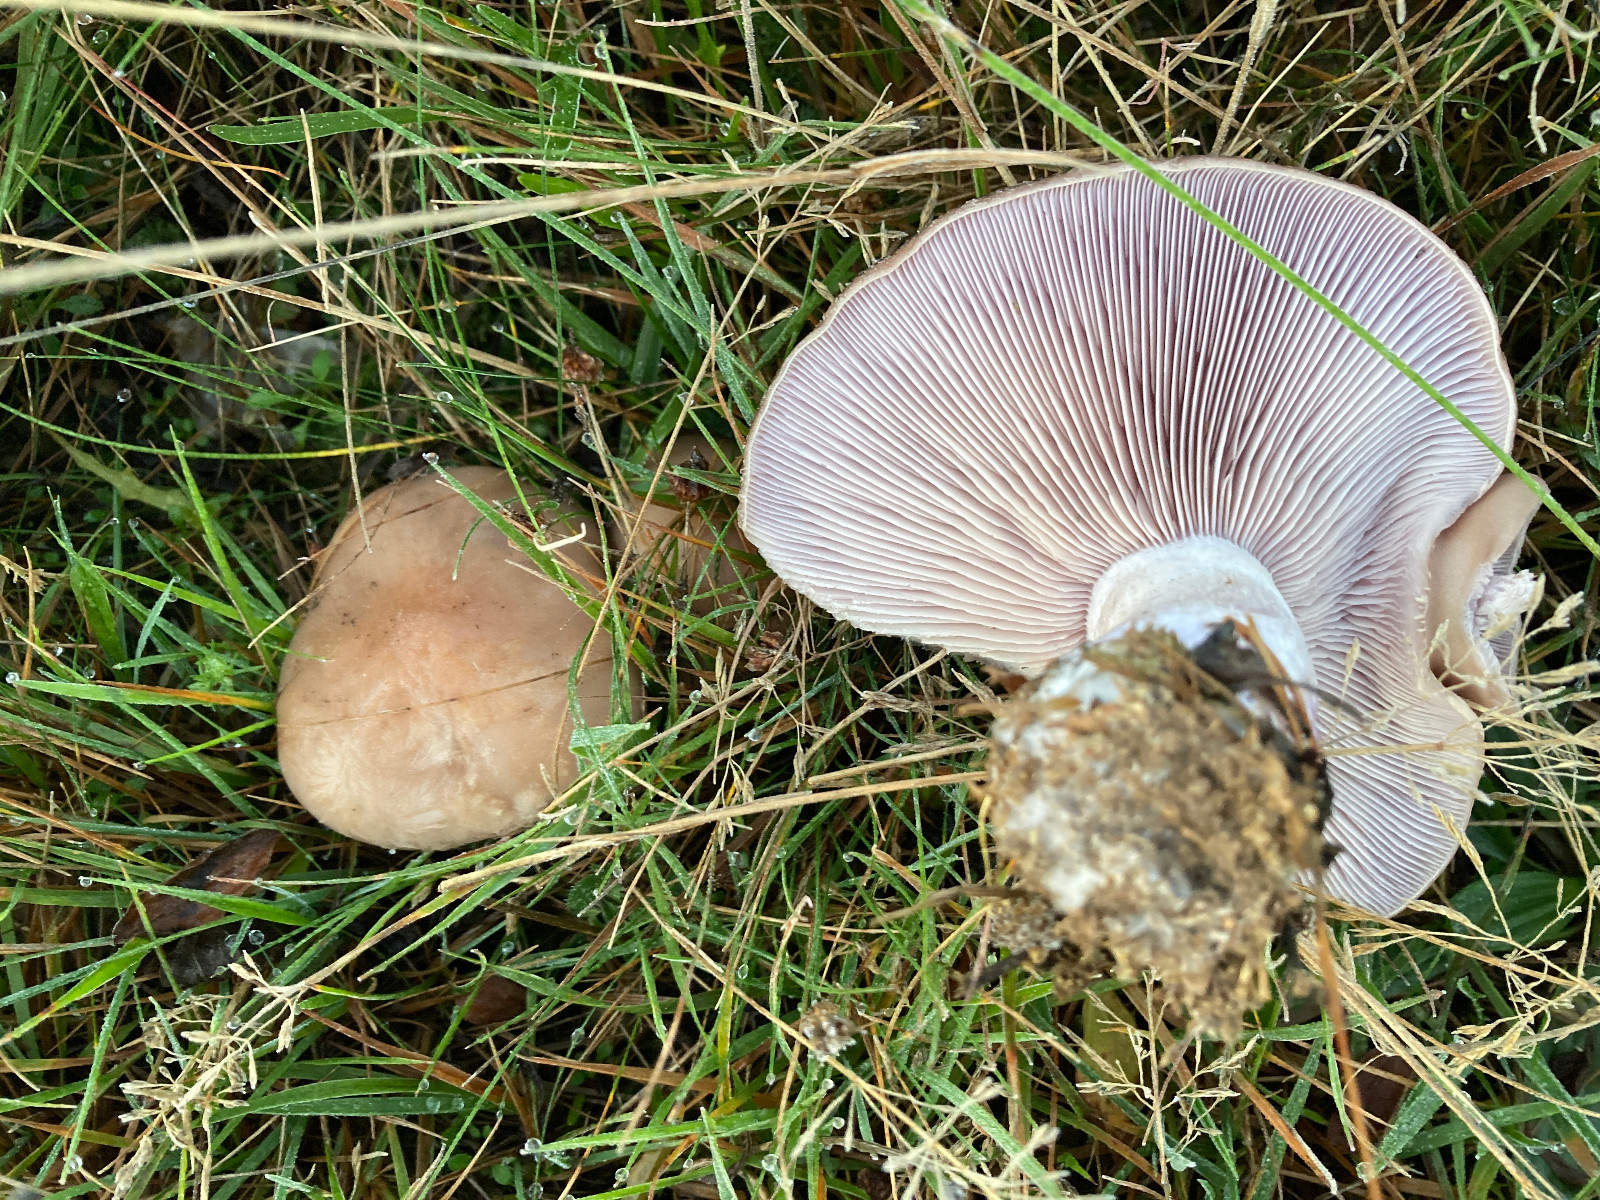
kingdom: Fungi
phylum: Basidiomycota
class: Agaricomycetes
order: Agaricales
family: Tricholomataceae
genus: Lepista
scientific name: Lepista nuda
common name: violet hekseringshat
